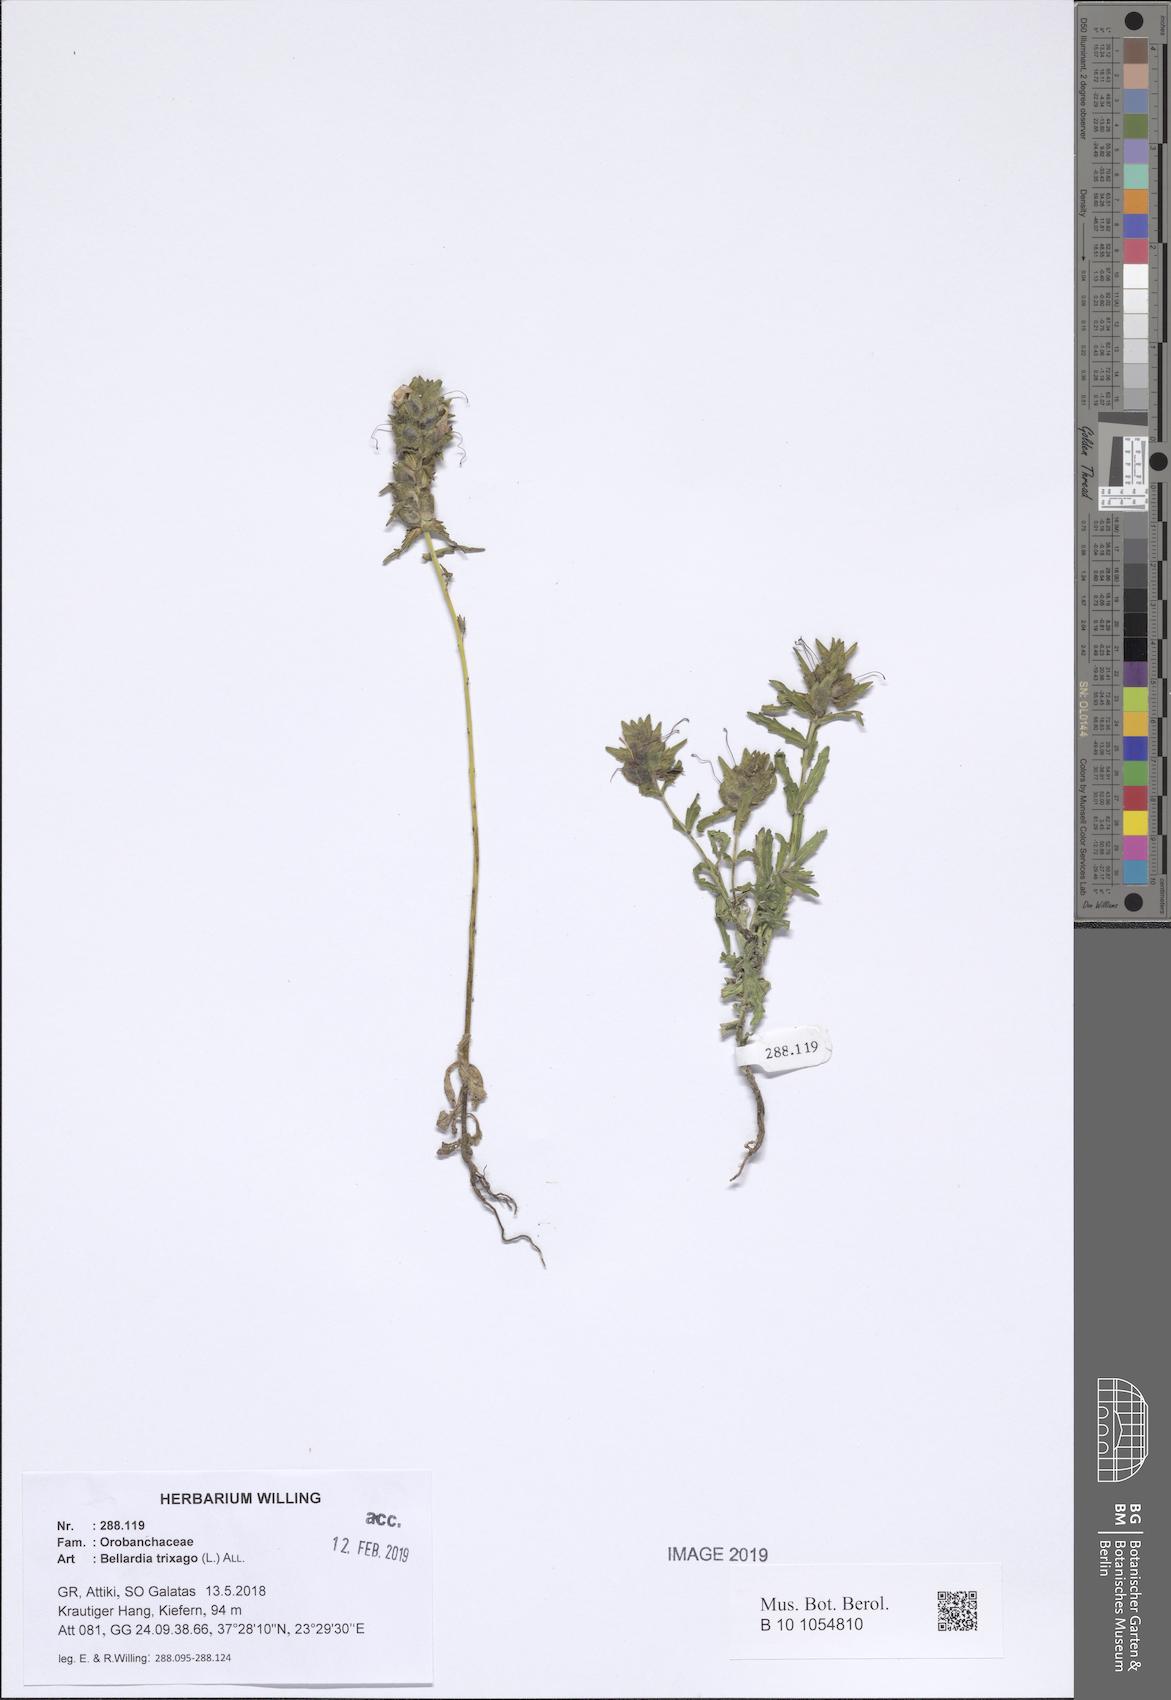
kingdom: Plantae
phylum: Tracheophyta
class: Magnoliopsida
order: Lamiales
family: Orobanchaceae
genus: Bellardia
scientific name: Bellardia trixago
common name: Mediterranean lineseed
